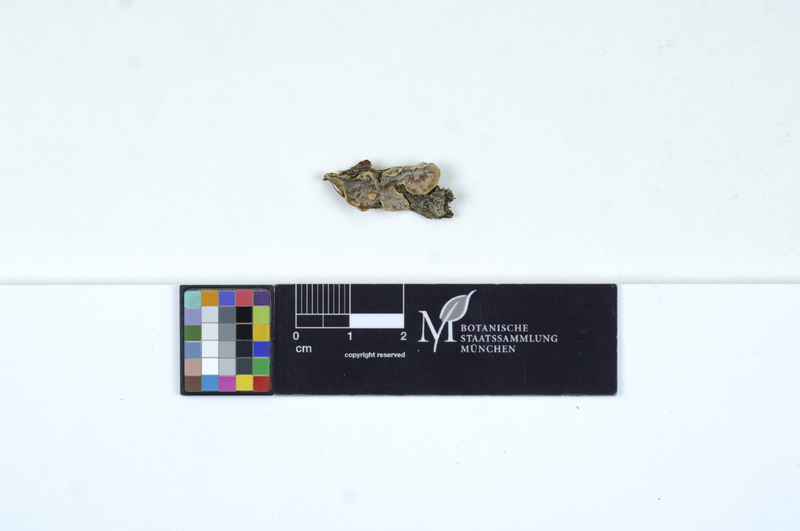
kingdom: Plantae
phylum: Tracheophyta
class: Magnoliopsida
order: Malpighiales
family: Salicaceae
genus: Populus
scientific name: Populus
